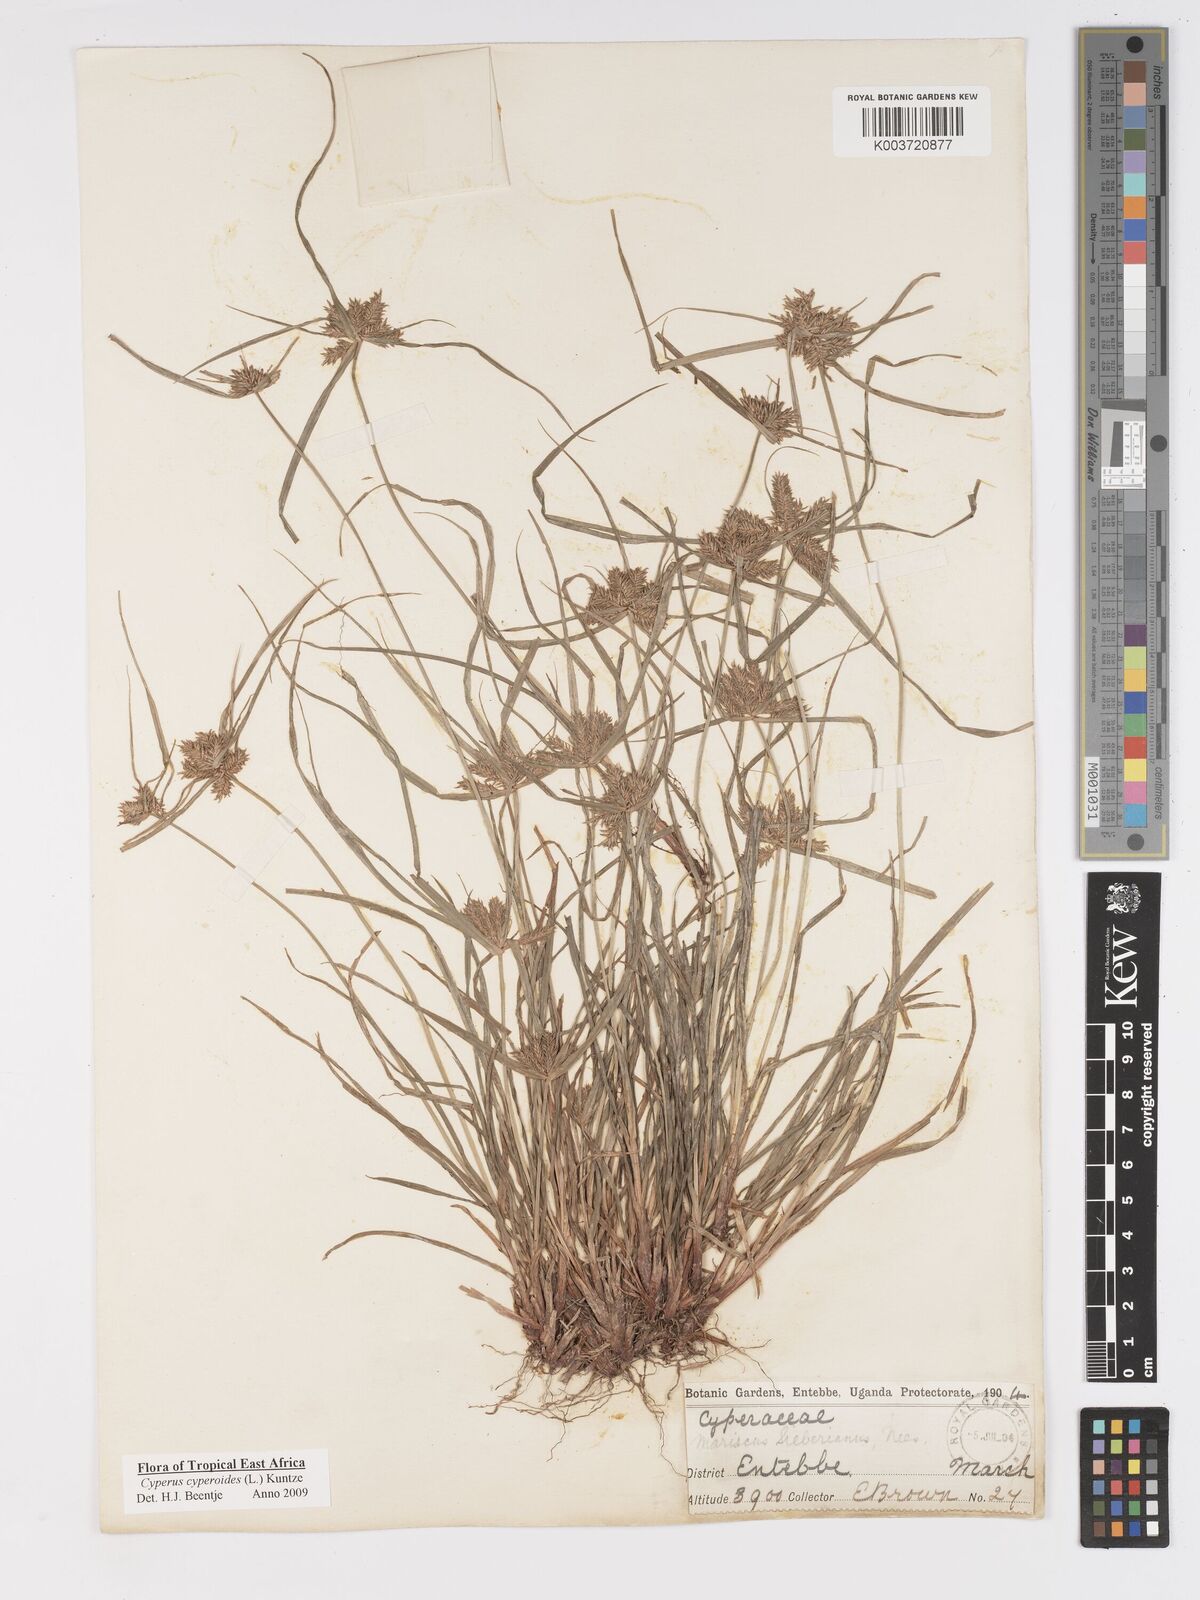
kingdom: Plantae
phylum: Tracheophyta
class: Liliopsida
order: Poales
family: Cyperaceae
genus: Cyperus
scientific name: Cyperus macrocarpus
